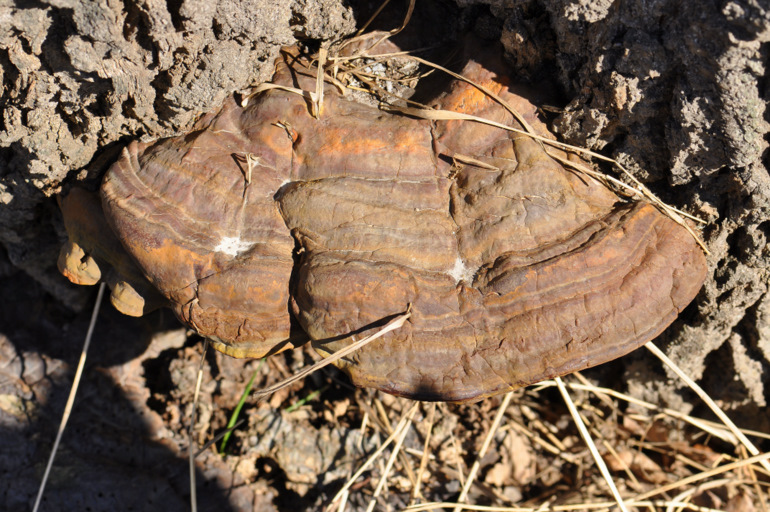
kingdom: Fungi
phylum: Basidiomycota
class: Agaricomycetes
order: Polyporales
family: Polyporaceae
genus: Ganoderma
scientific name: Ganoderma resinaceum
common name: gyldenbrun lakporesvamp
